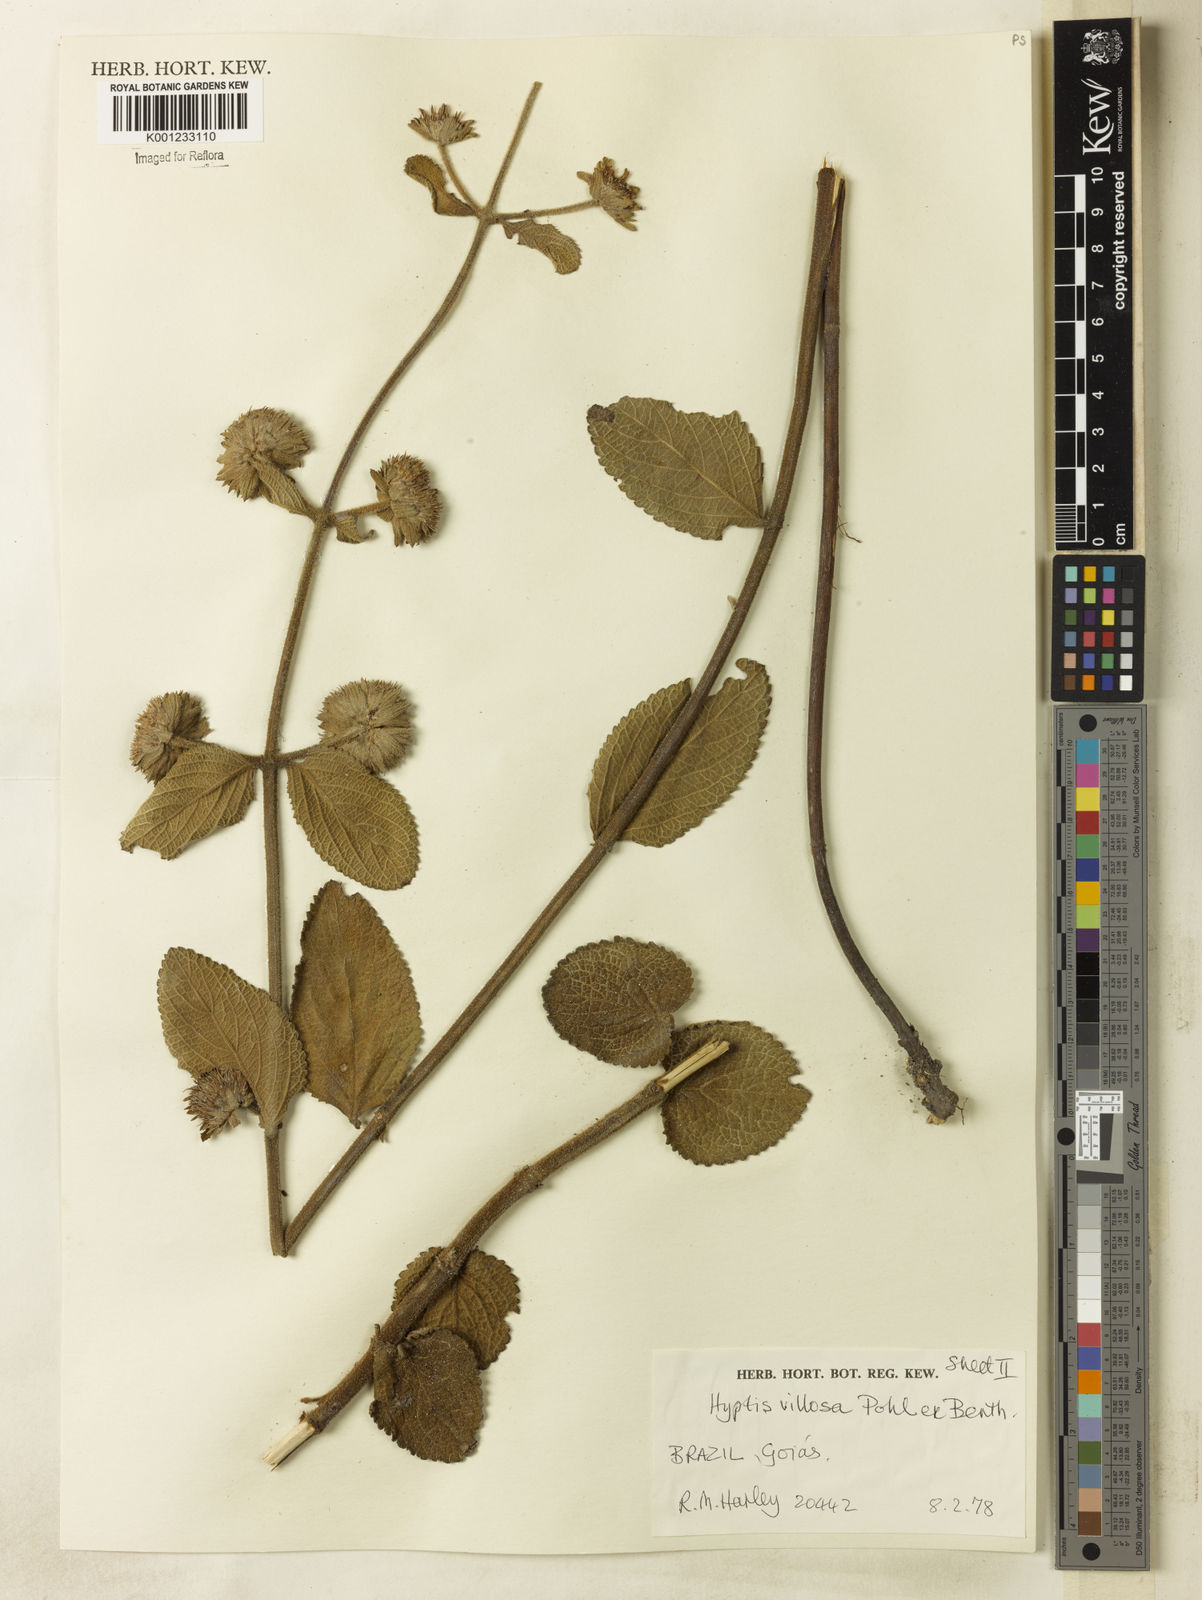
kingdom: Plantae
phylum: Tracheophyta
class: Magnoliopsida
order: Lamiales
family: Lamiaceae
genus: Hyptis
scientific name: Hyptis villosa
